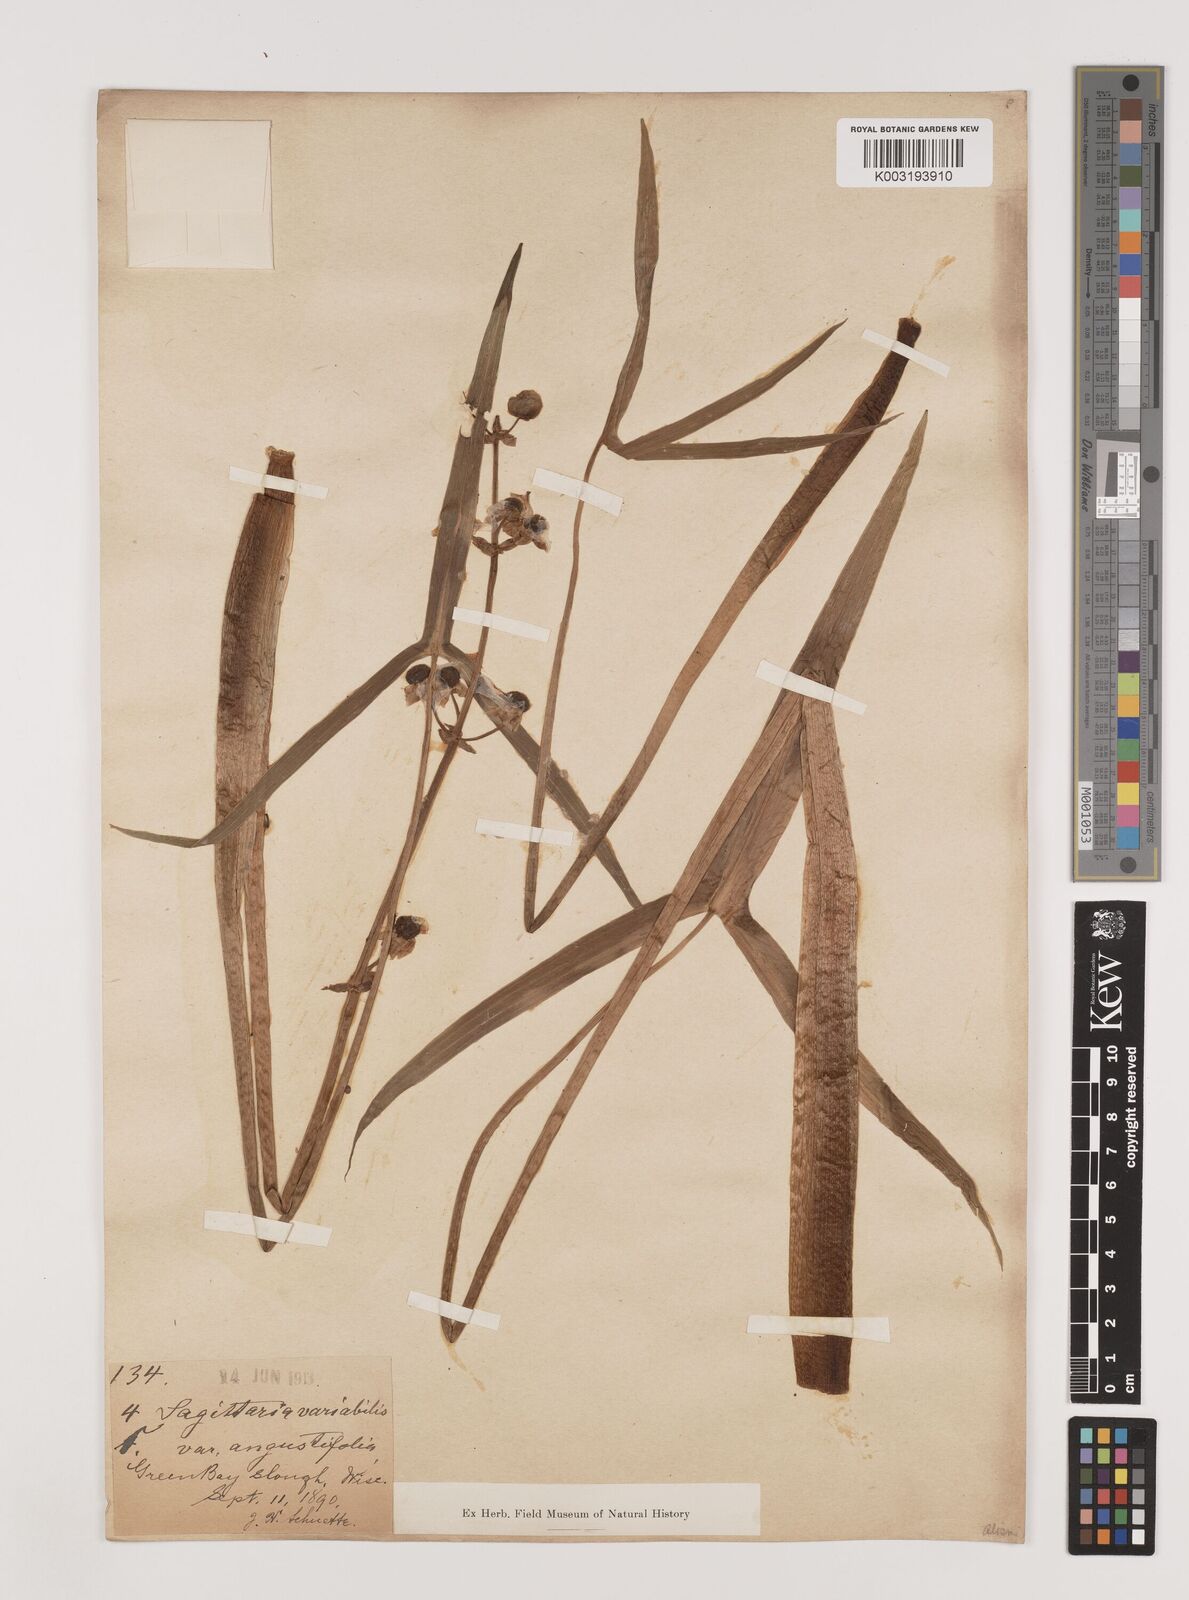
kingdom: Plantae
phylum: Tracheophyta
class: Liliopsida
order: Alismatales
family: Alismataceae
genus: Sagittaria
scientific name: Sagittaria latifolia
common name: Duck-potato
